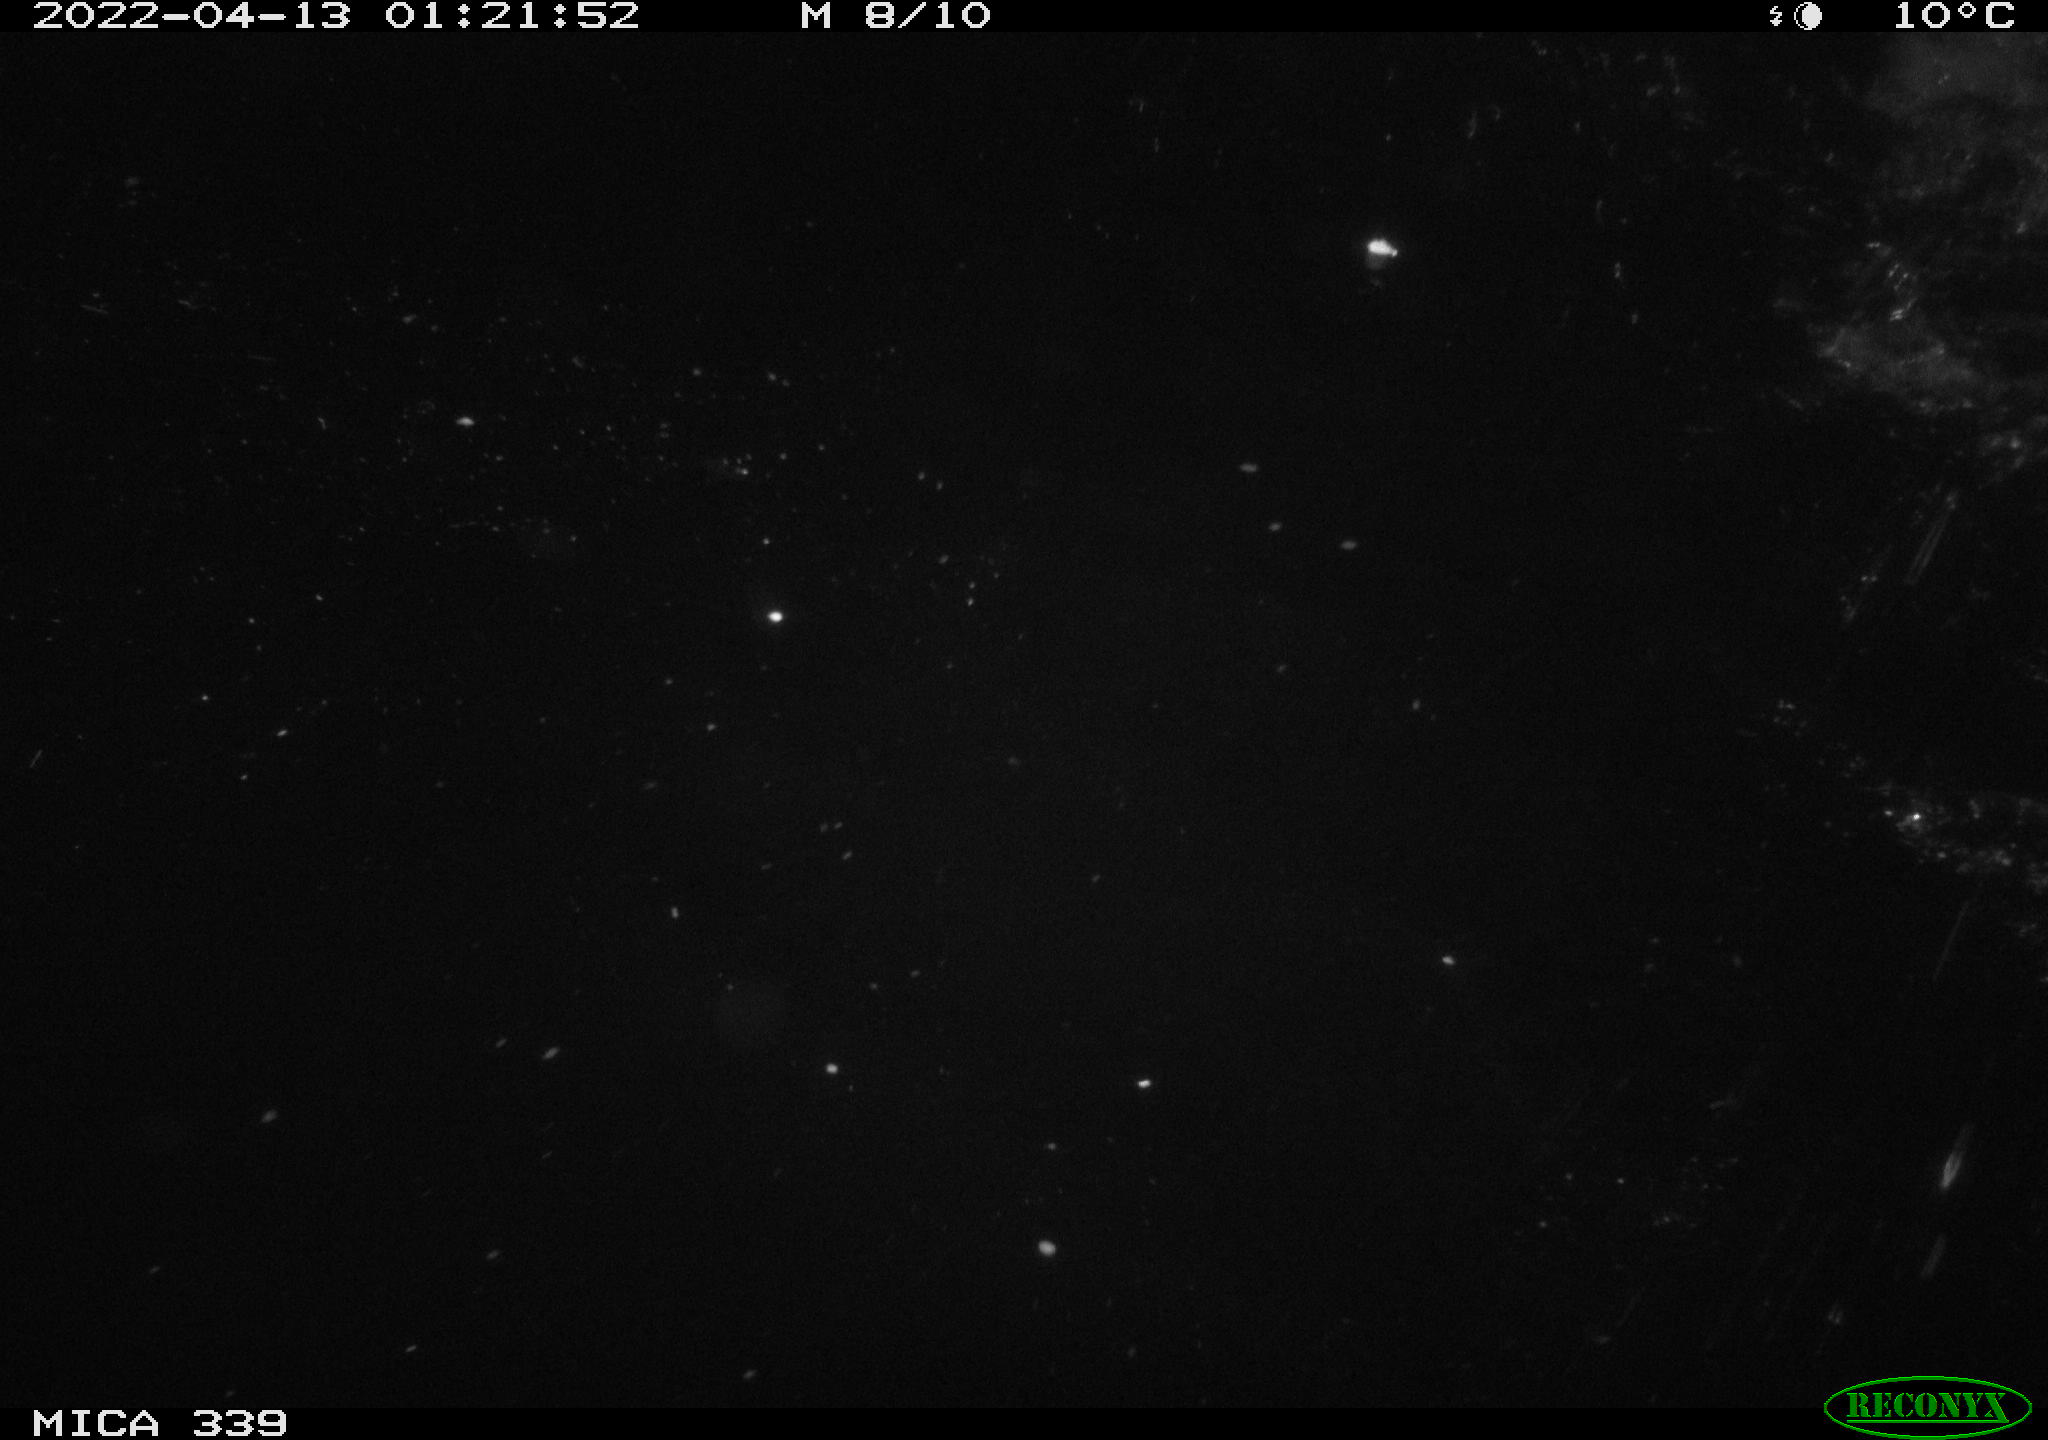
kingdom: Animalia
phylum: Chordata
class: Aves
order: Anseriformes
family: Anatidae
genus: Anas
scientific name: Anas platyrhynchos
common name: Mallard
